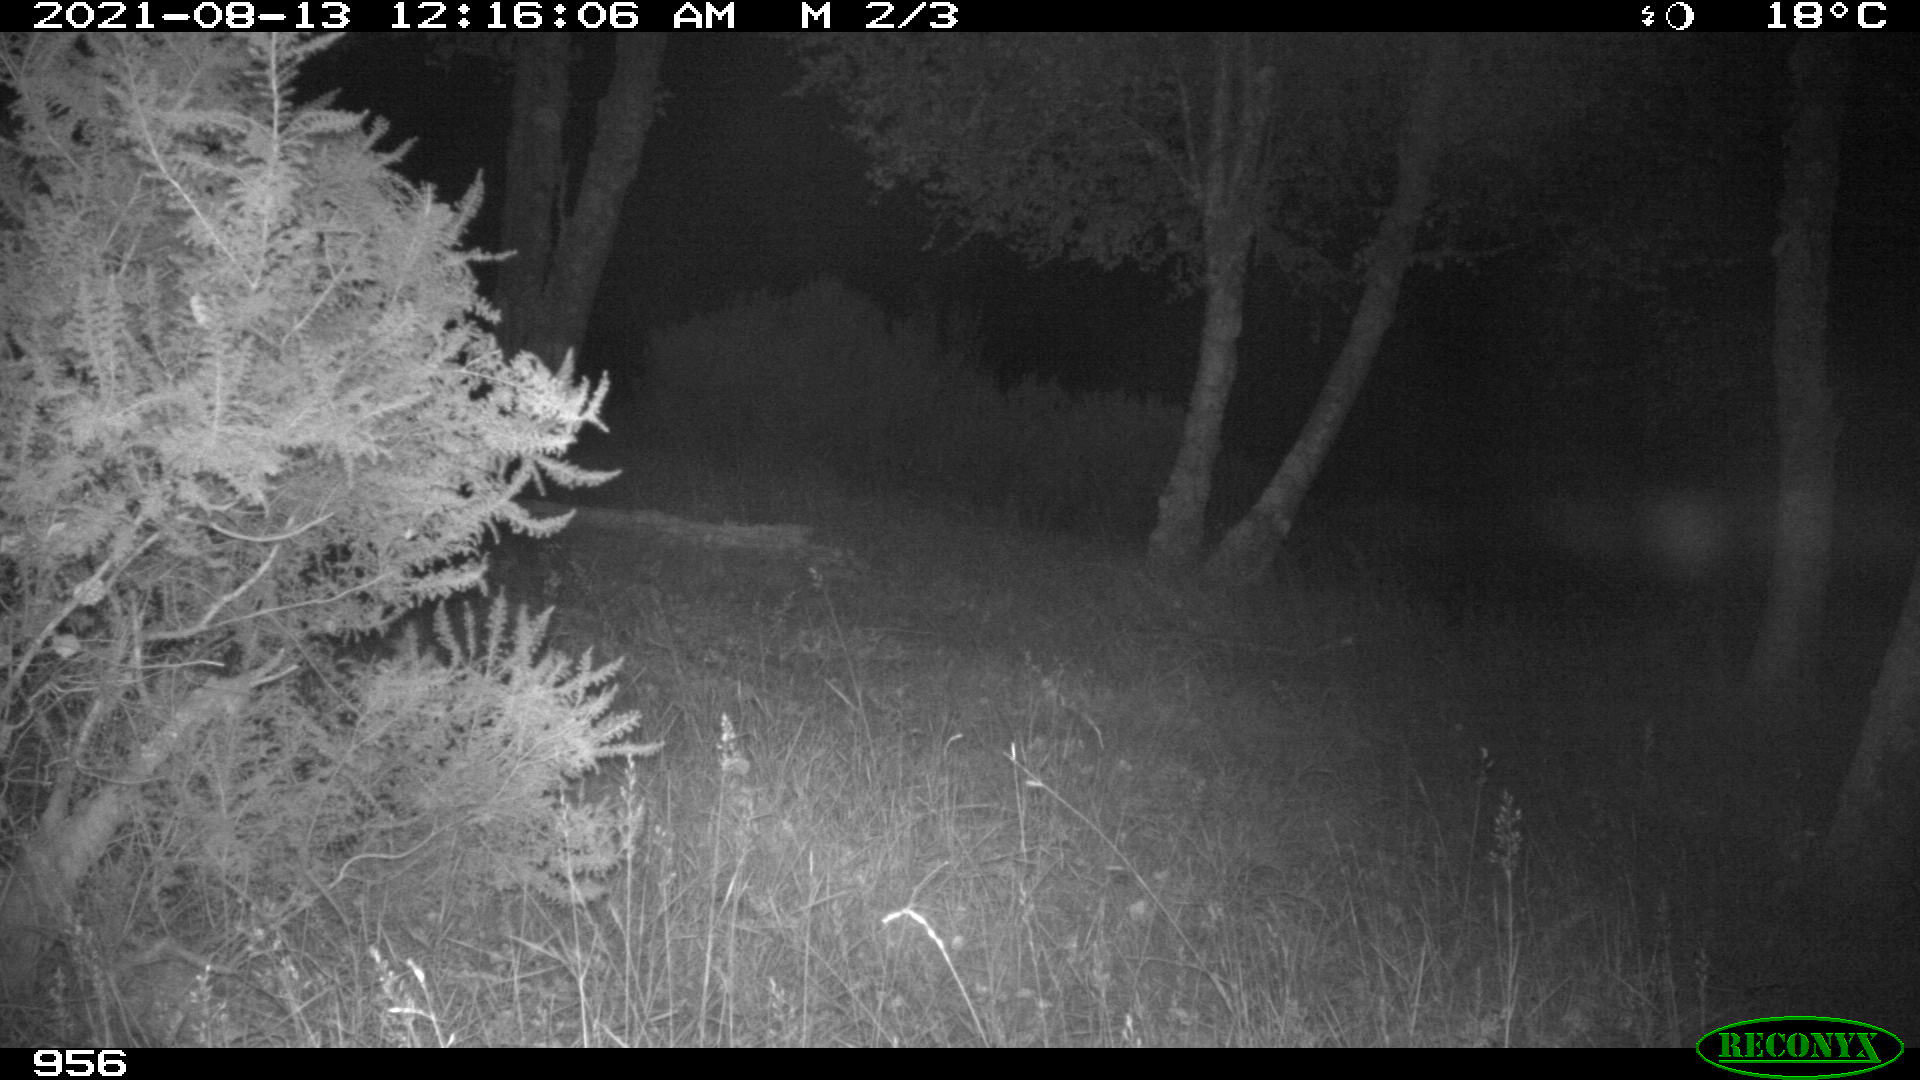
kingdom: Animalia
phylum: Chordata
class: Mammalia
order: Artiodactyla
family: Cervidae
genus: Capreolus
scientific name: Capreolus capreolus
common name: Western roe deer
